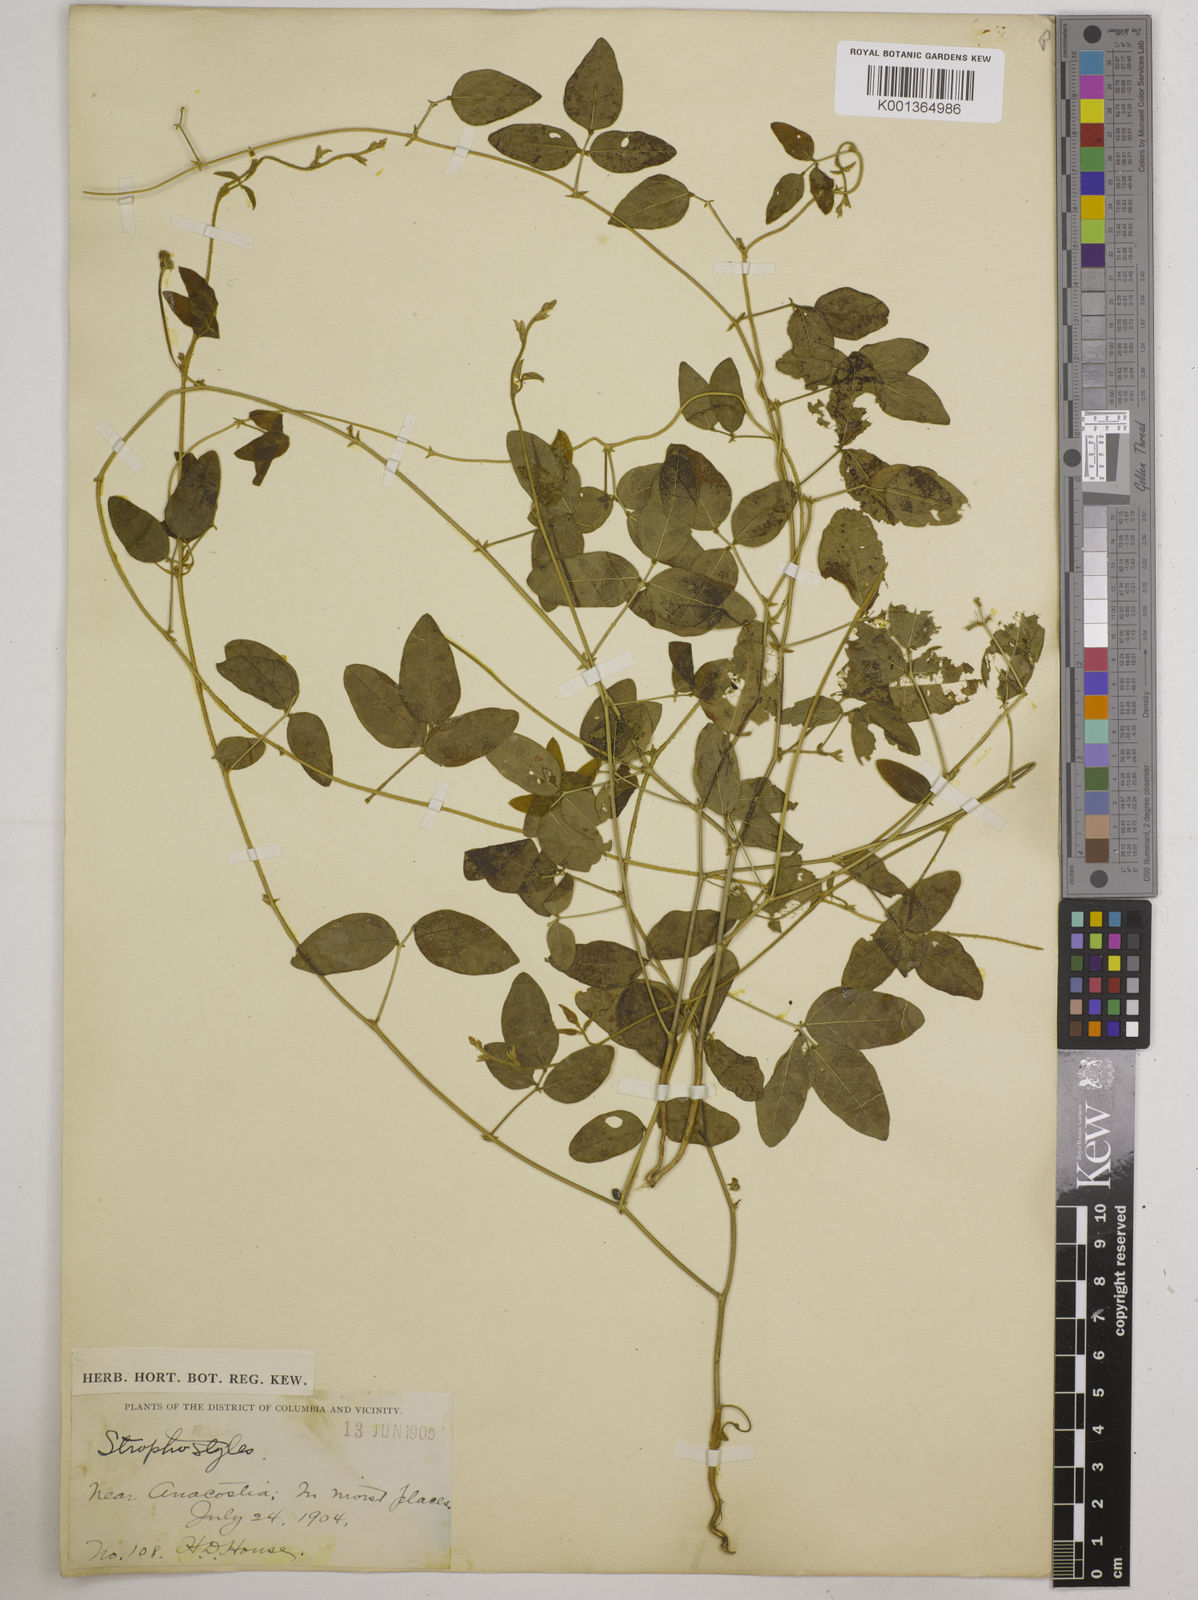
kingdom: Plantae
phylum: Tracheophyta
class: Magnoliopsida
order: Fabales
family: Fabaceae
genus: Strophostyles
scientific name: Strophostyles
